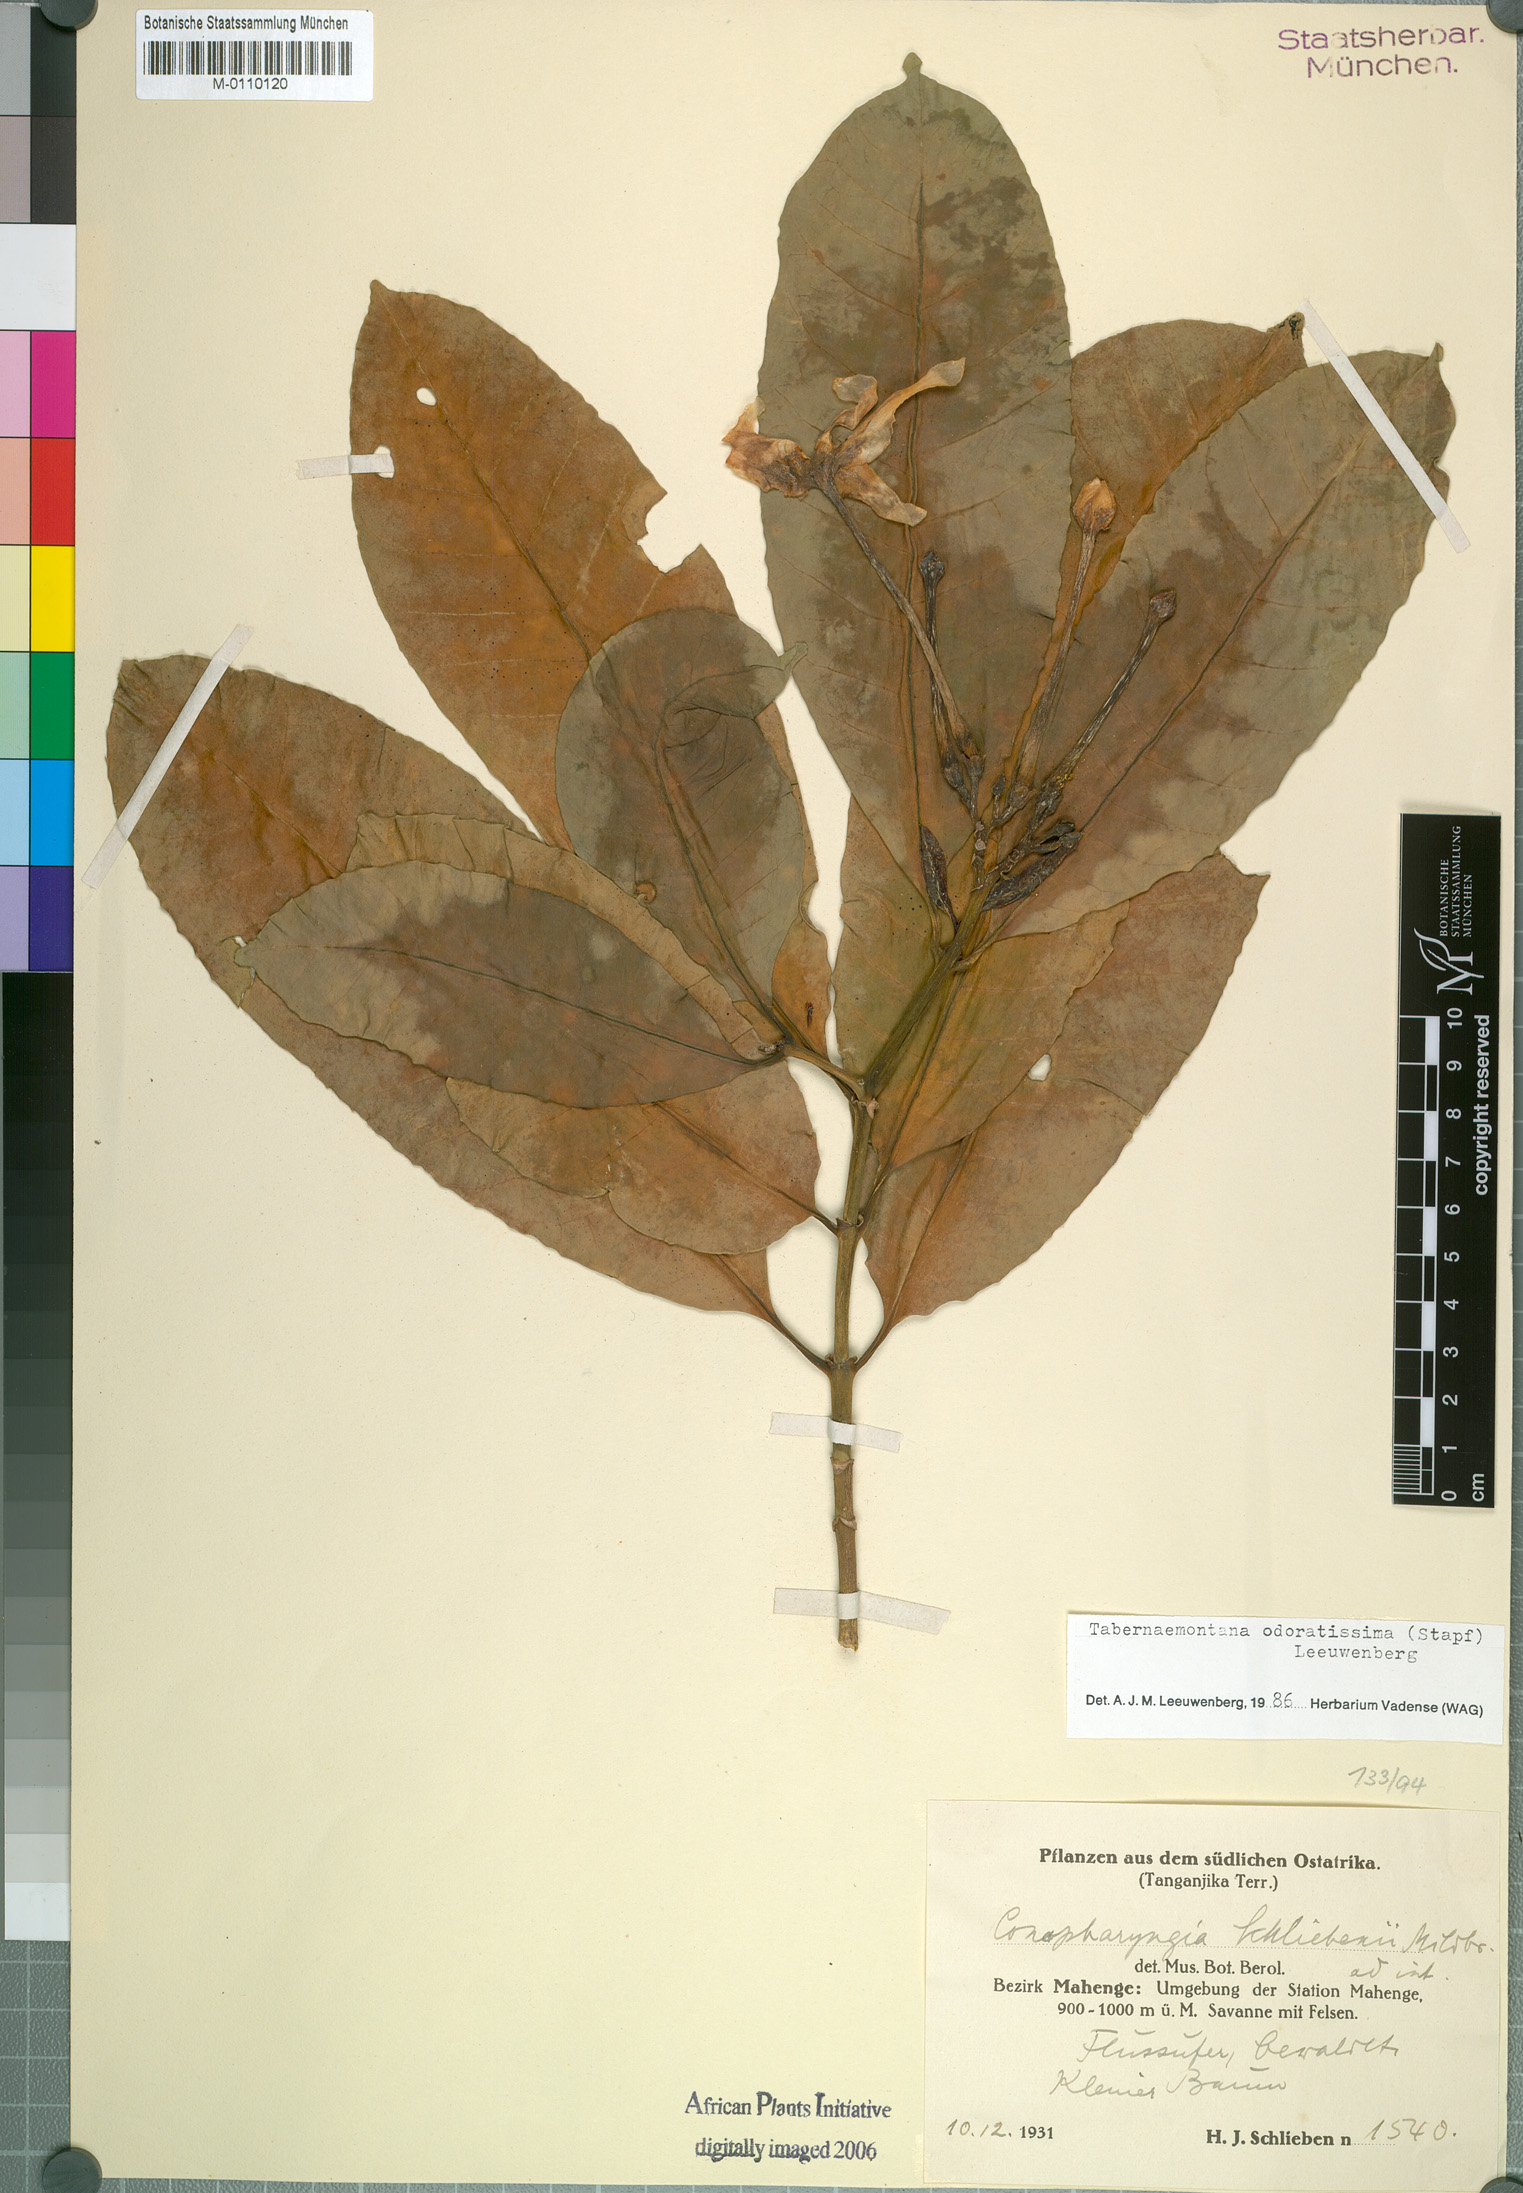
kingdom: Plantae
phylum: Tracheophyta
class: Magnoliopsida
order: Gentianales
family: Apocynaceae
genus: Tabernaemontana
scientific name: Tabernaemontana odoratissima
